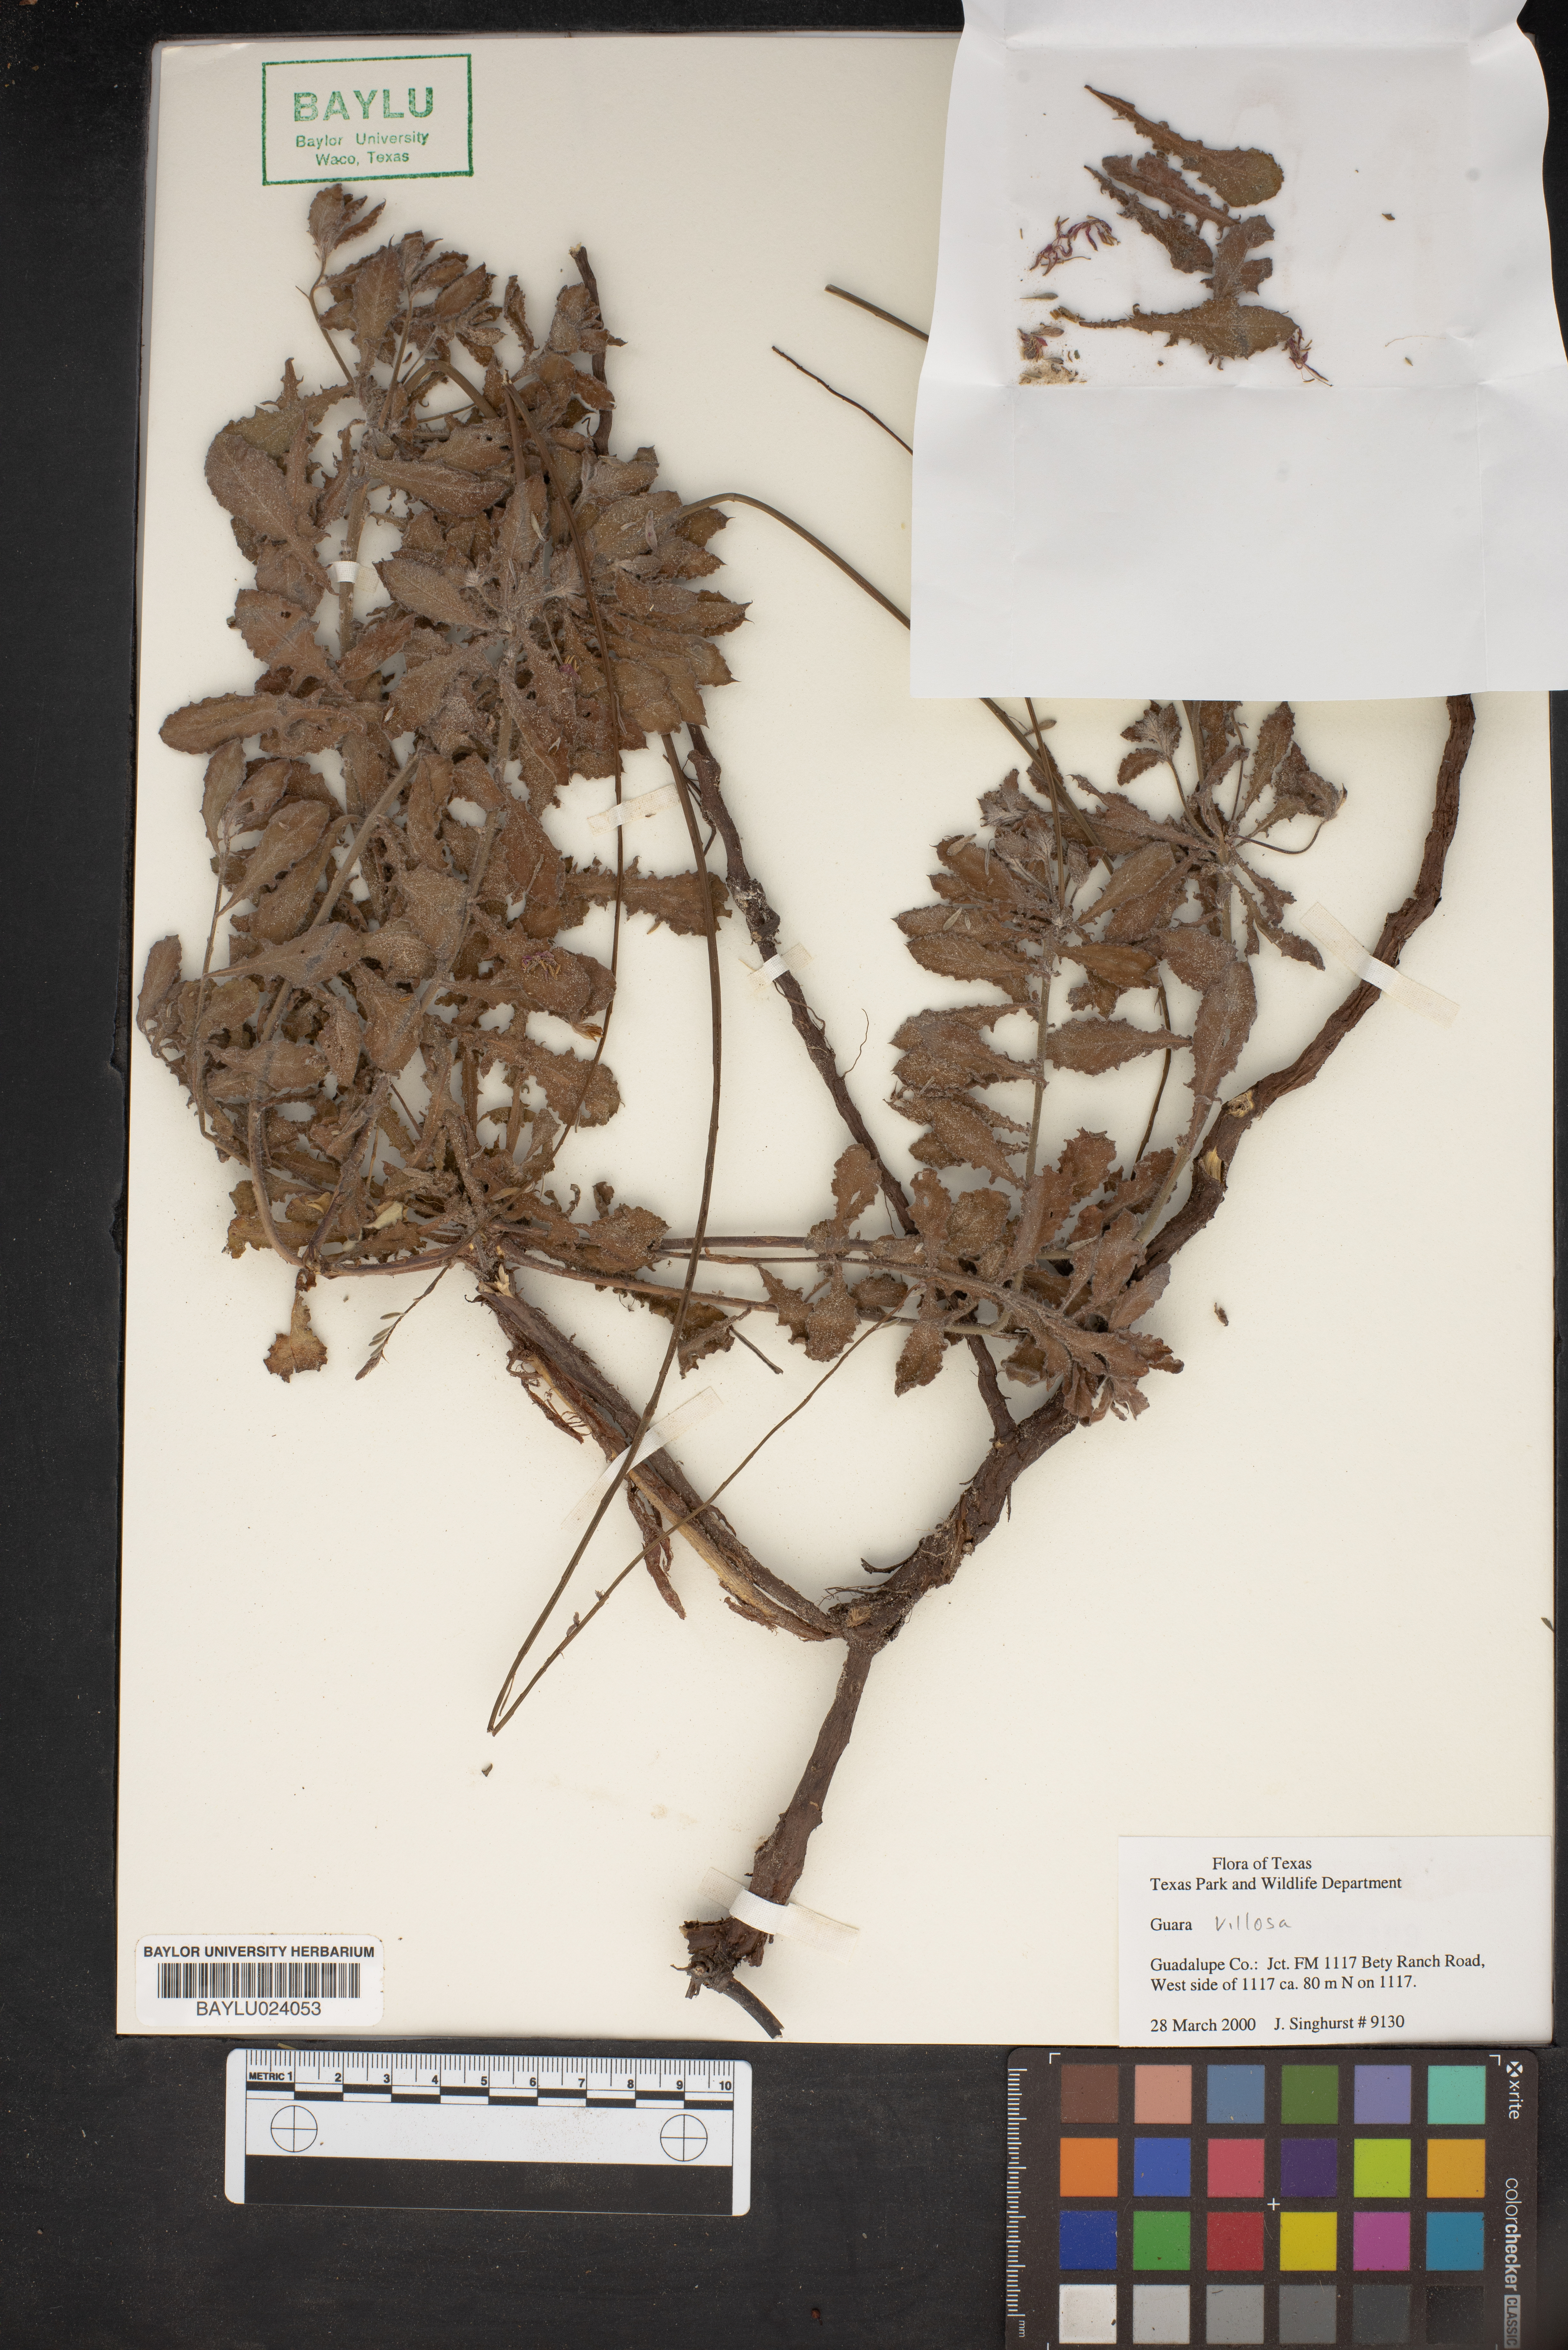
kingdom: Plantae
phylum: Tracheophyta
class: Magnoliopsida
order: Myrtales
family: Onagraceae
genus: Oenothera
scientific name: Oenothera cinerea
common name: Woolly beeblossom
